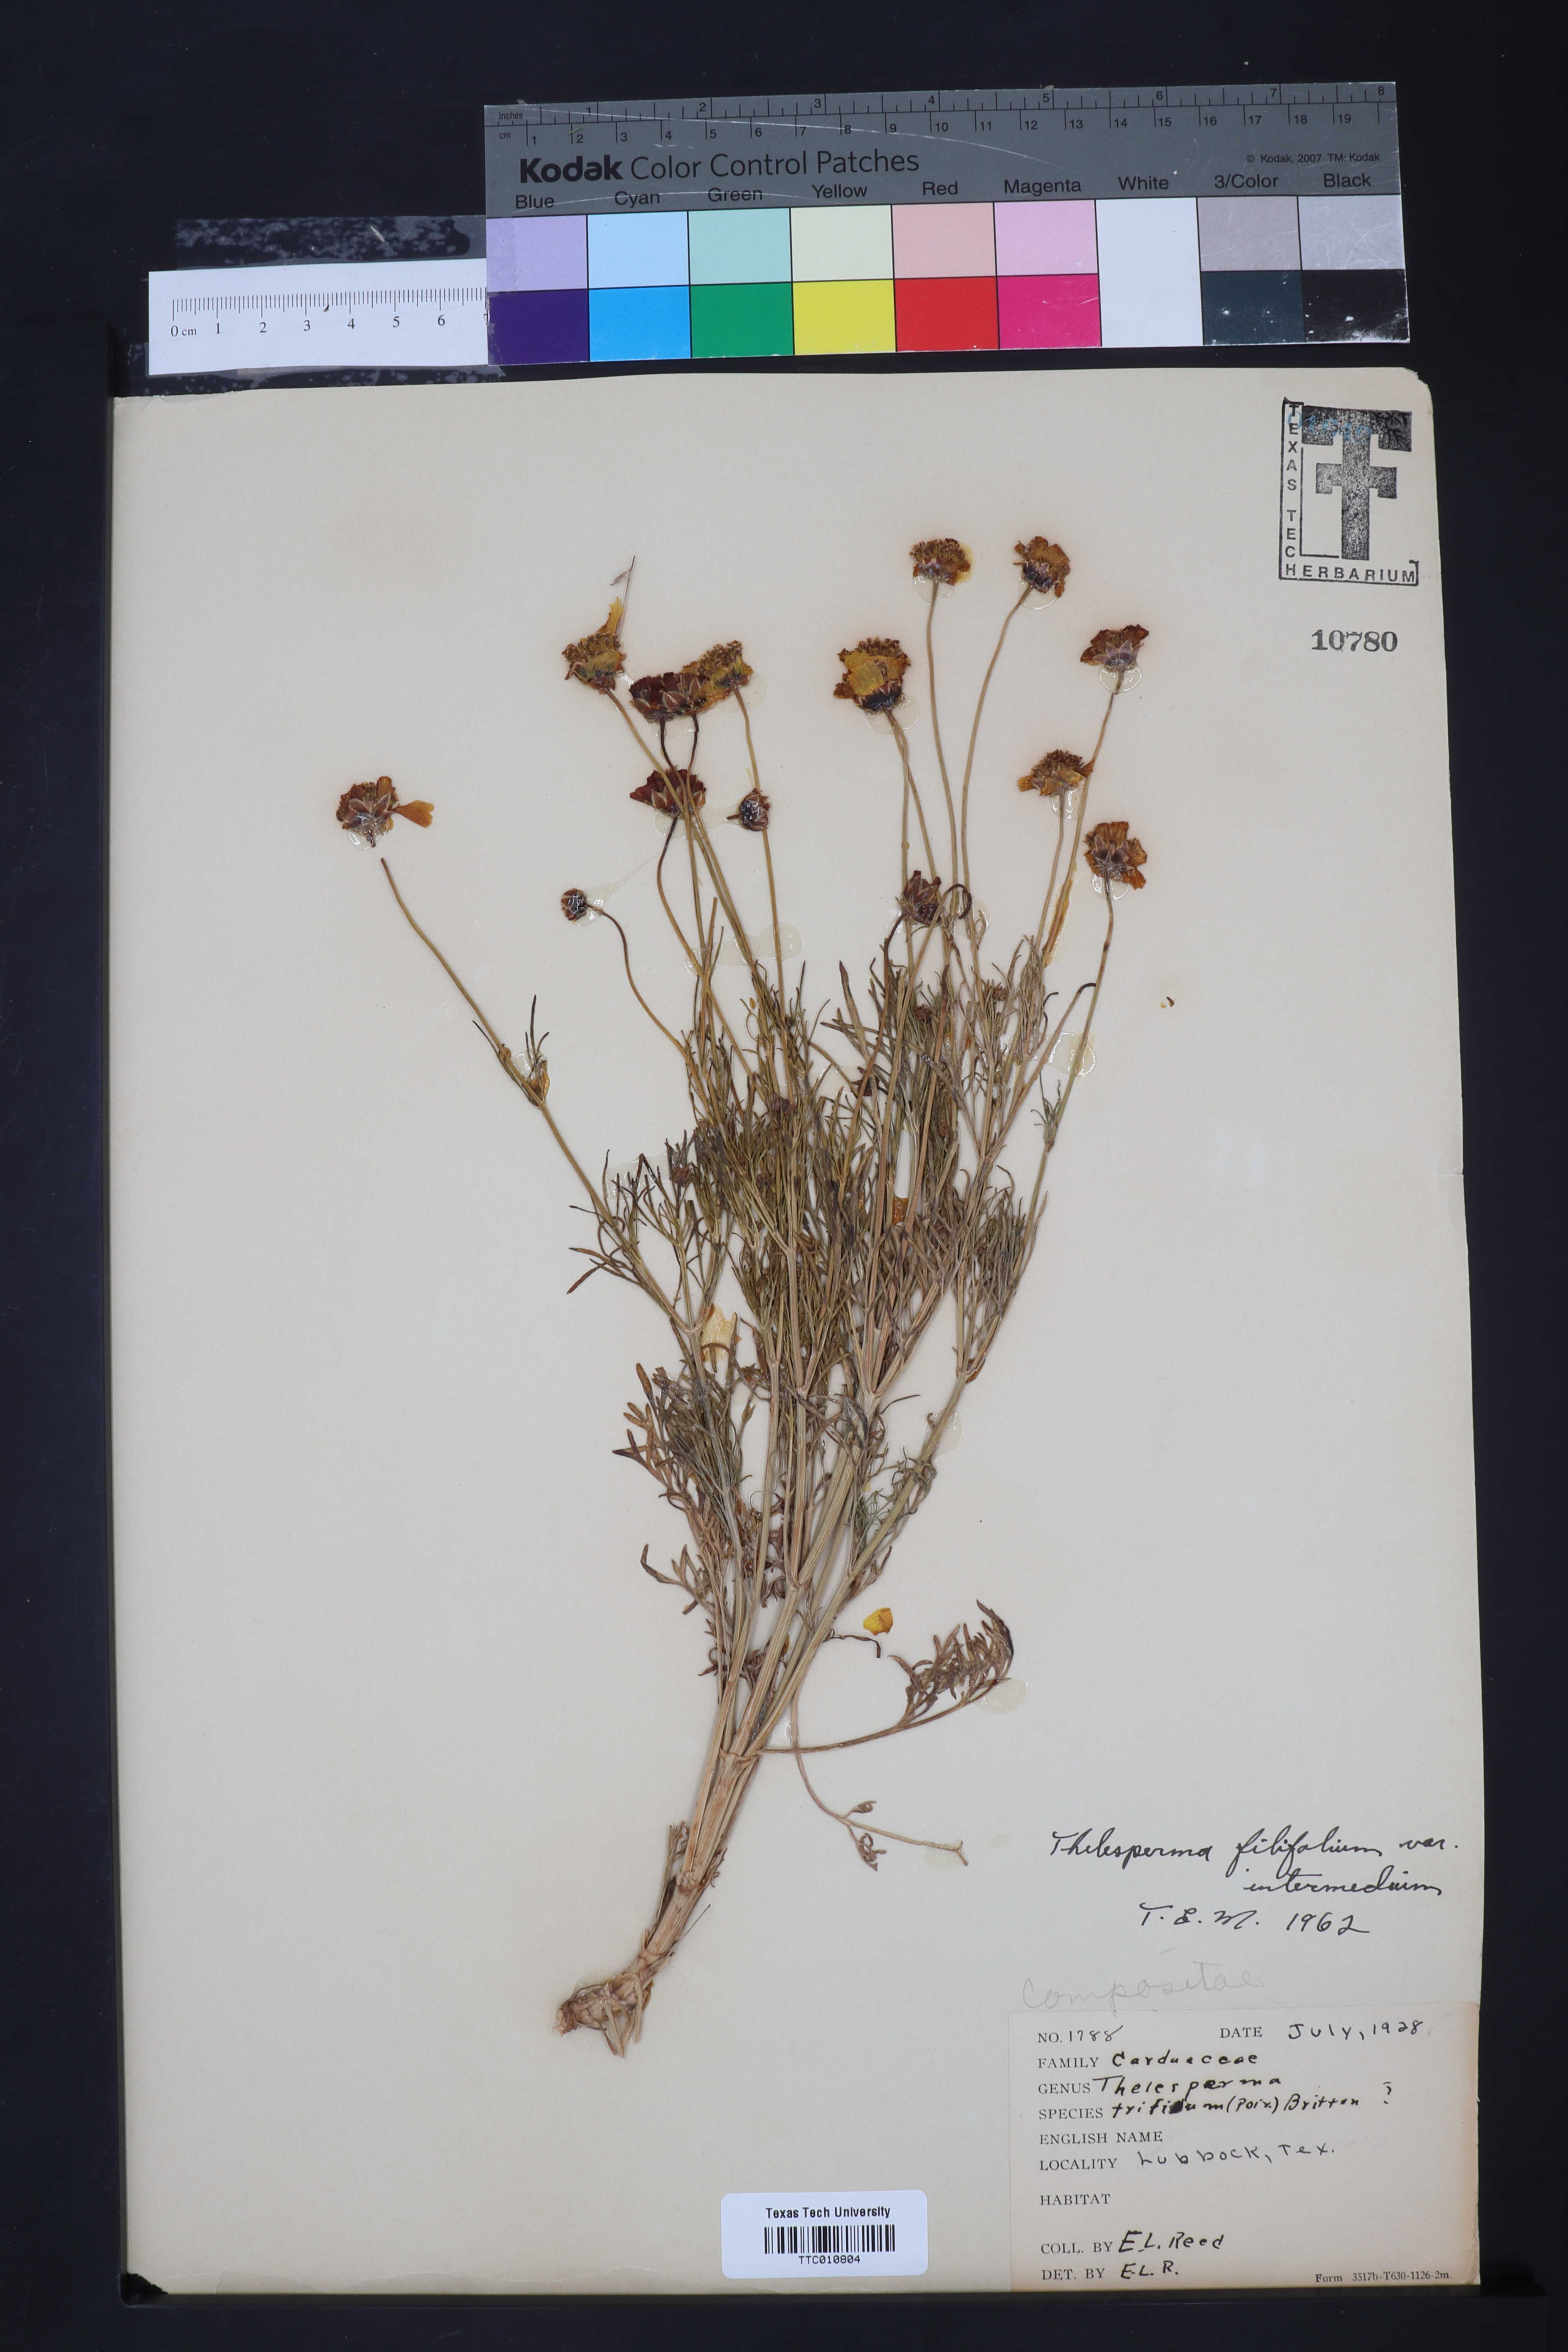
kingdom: Plantae
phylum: Tracheophyta
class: Magnoliopsida
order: Asterales
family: Asteraceae
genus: Thelesperma
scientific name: Thelesperma filifolium
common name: Stiff greenthread
